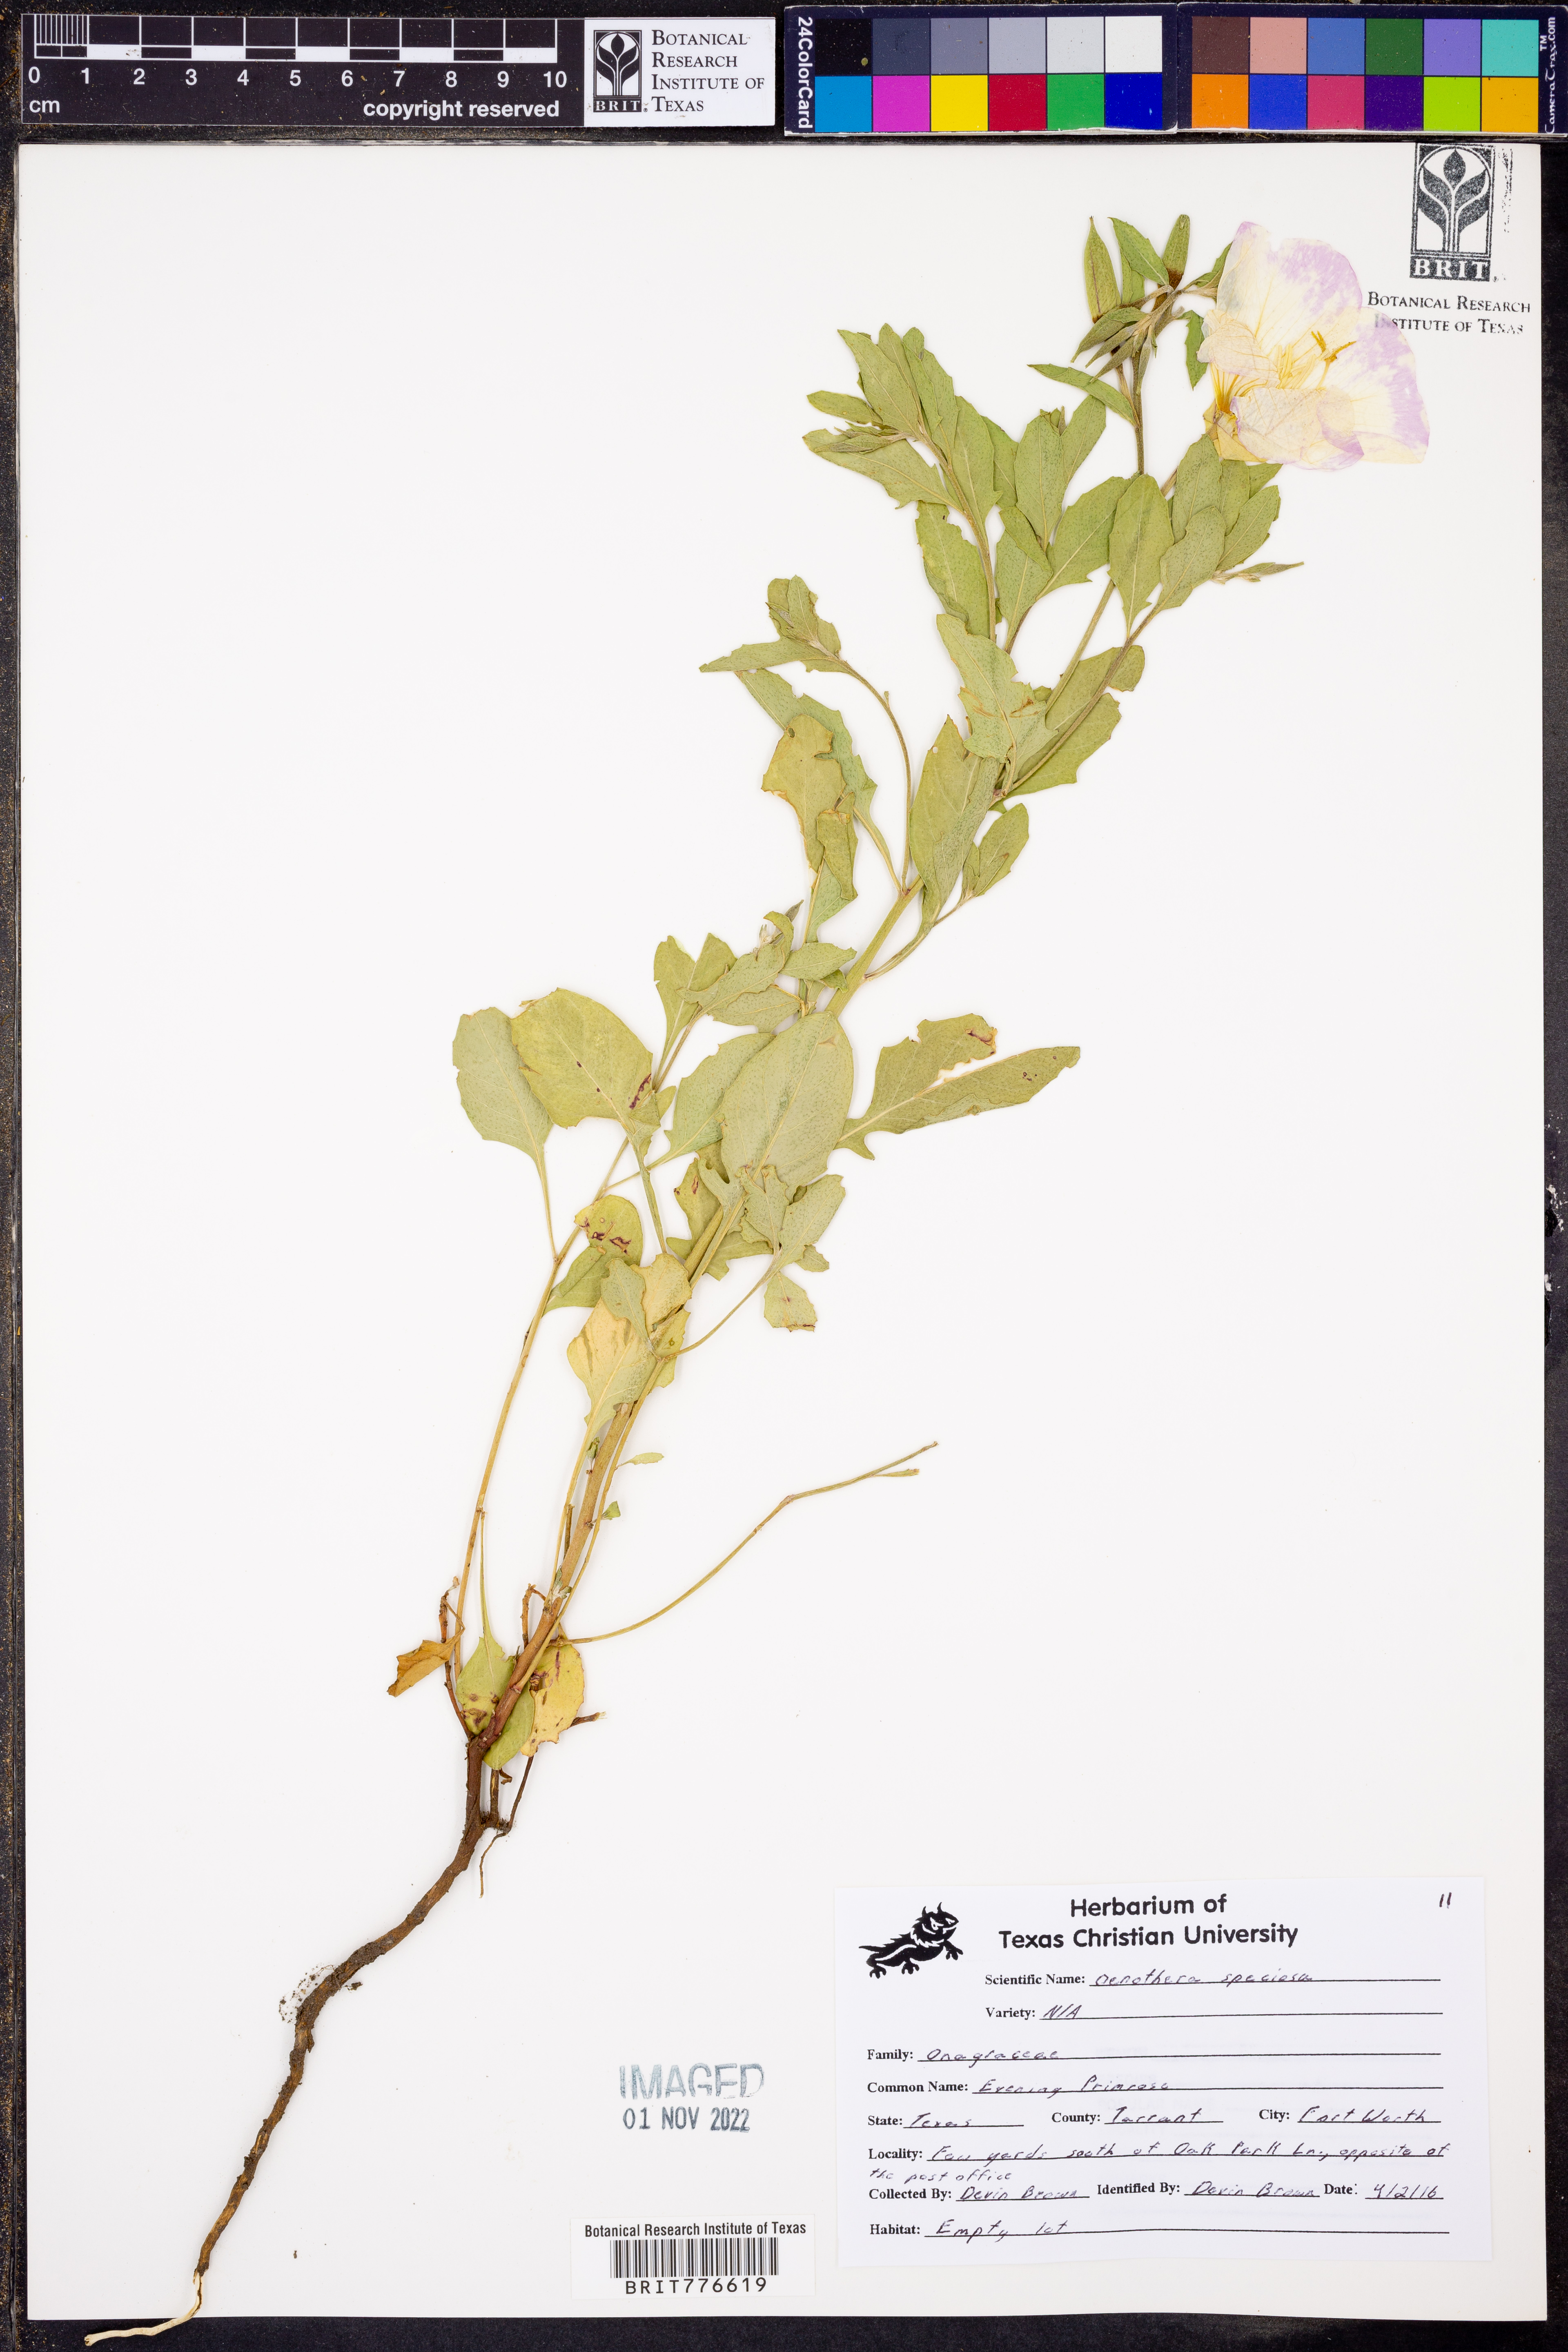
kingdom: Plantae
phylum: Tracheophyta
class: Magnoliopsida
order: Myrtales
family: Onagraceae
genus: Oenothera
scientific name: Oenothera speciosa
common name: White evening-primrose
